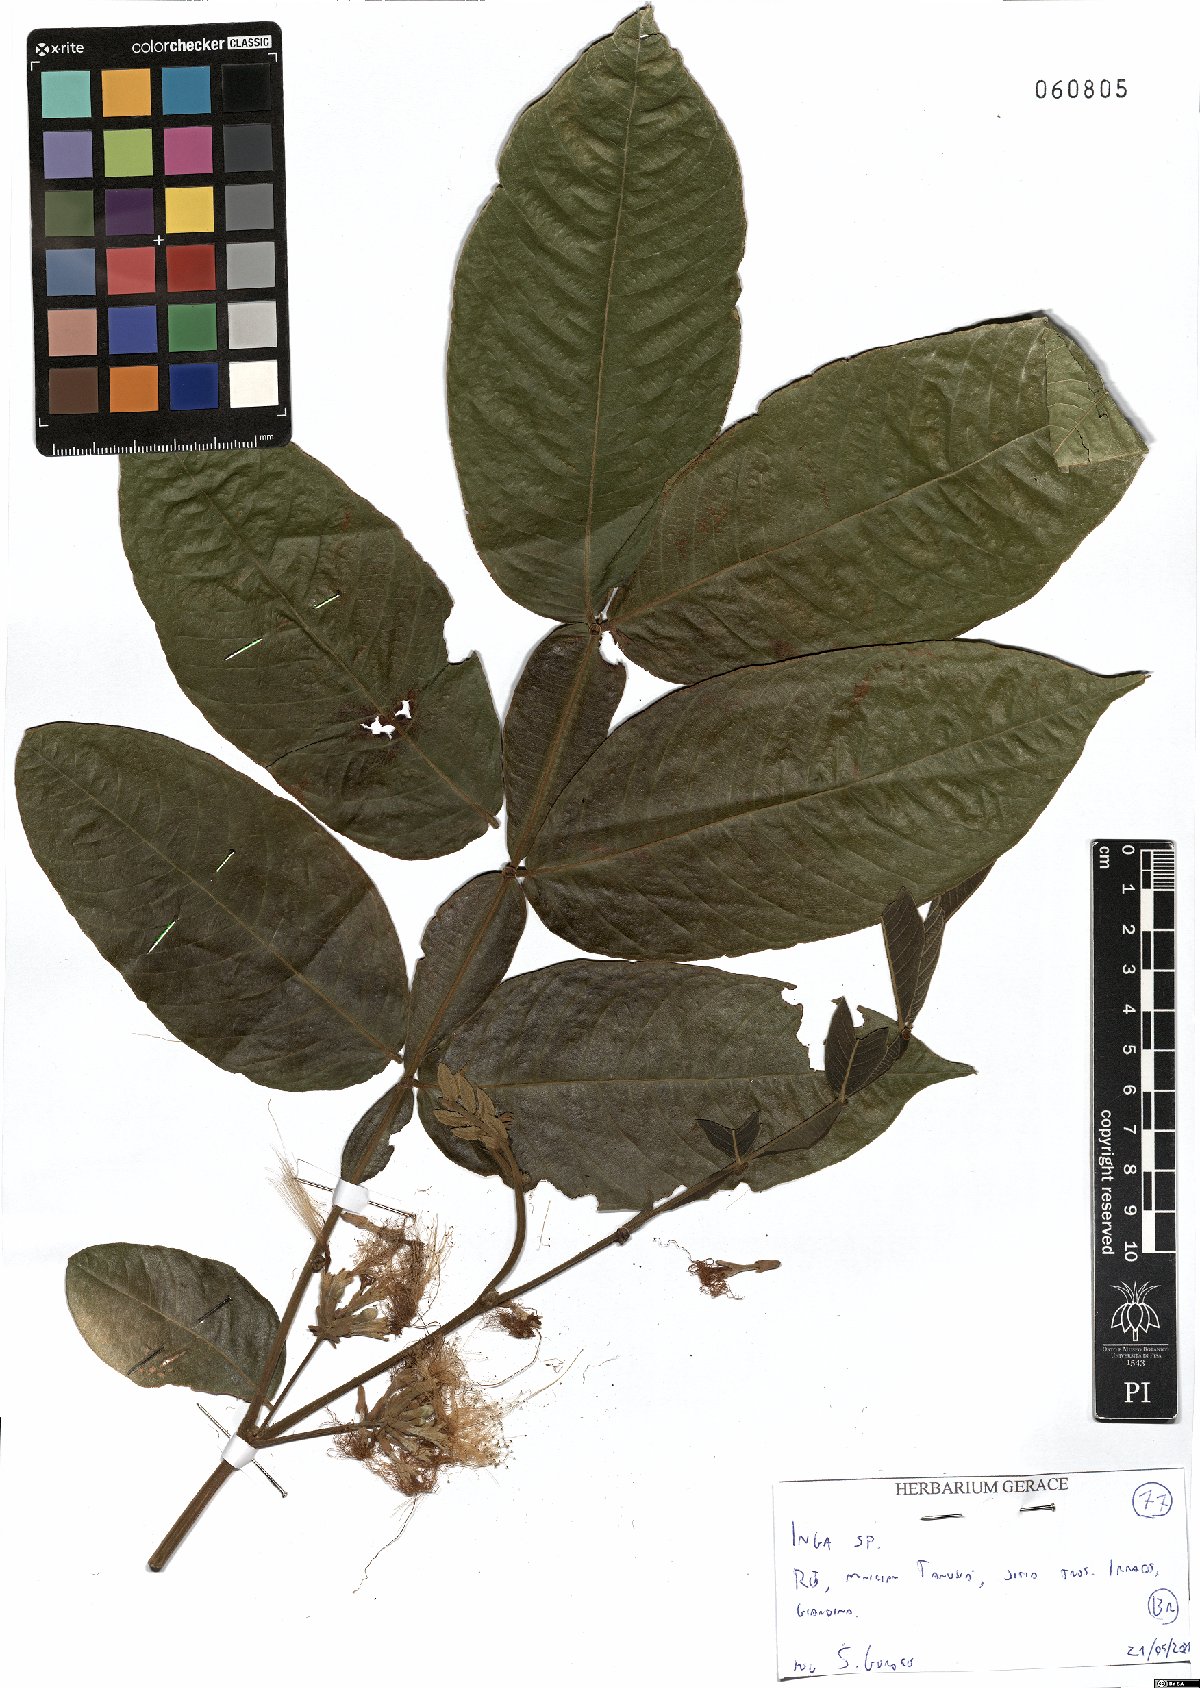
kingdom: Plantae
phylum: Tracheophyta
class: Magnoliopsida
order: Fabales
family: Fabaceae
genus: Inga
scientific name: Inga
